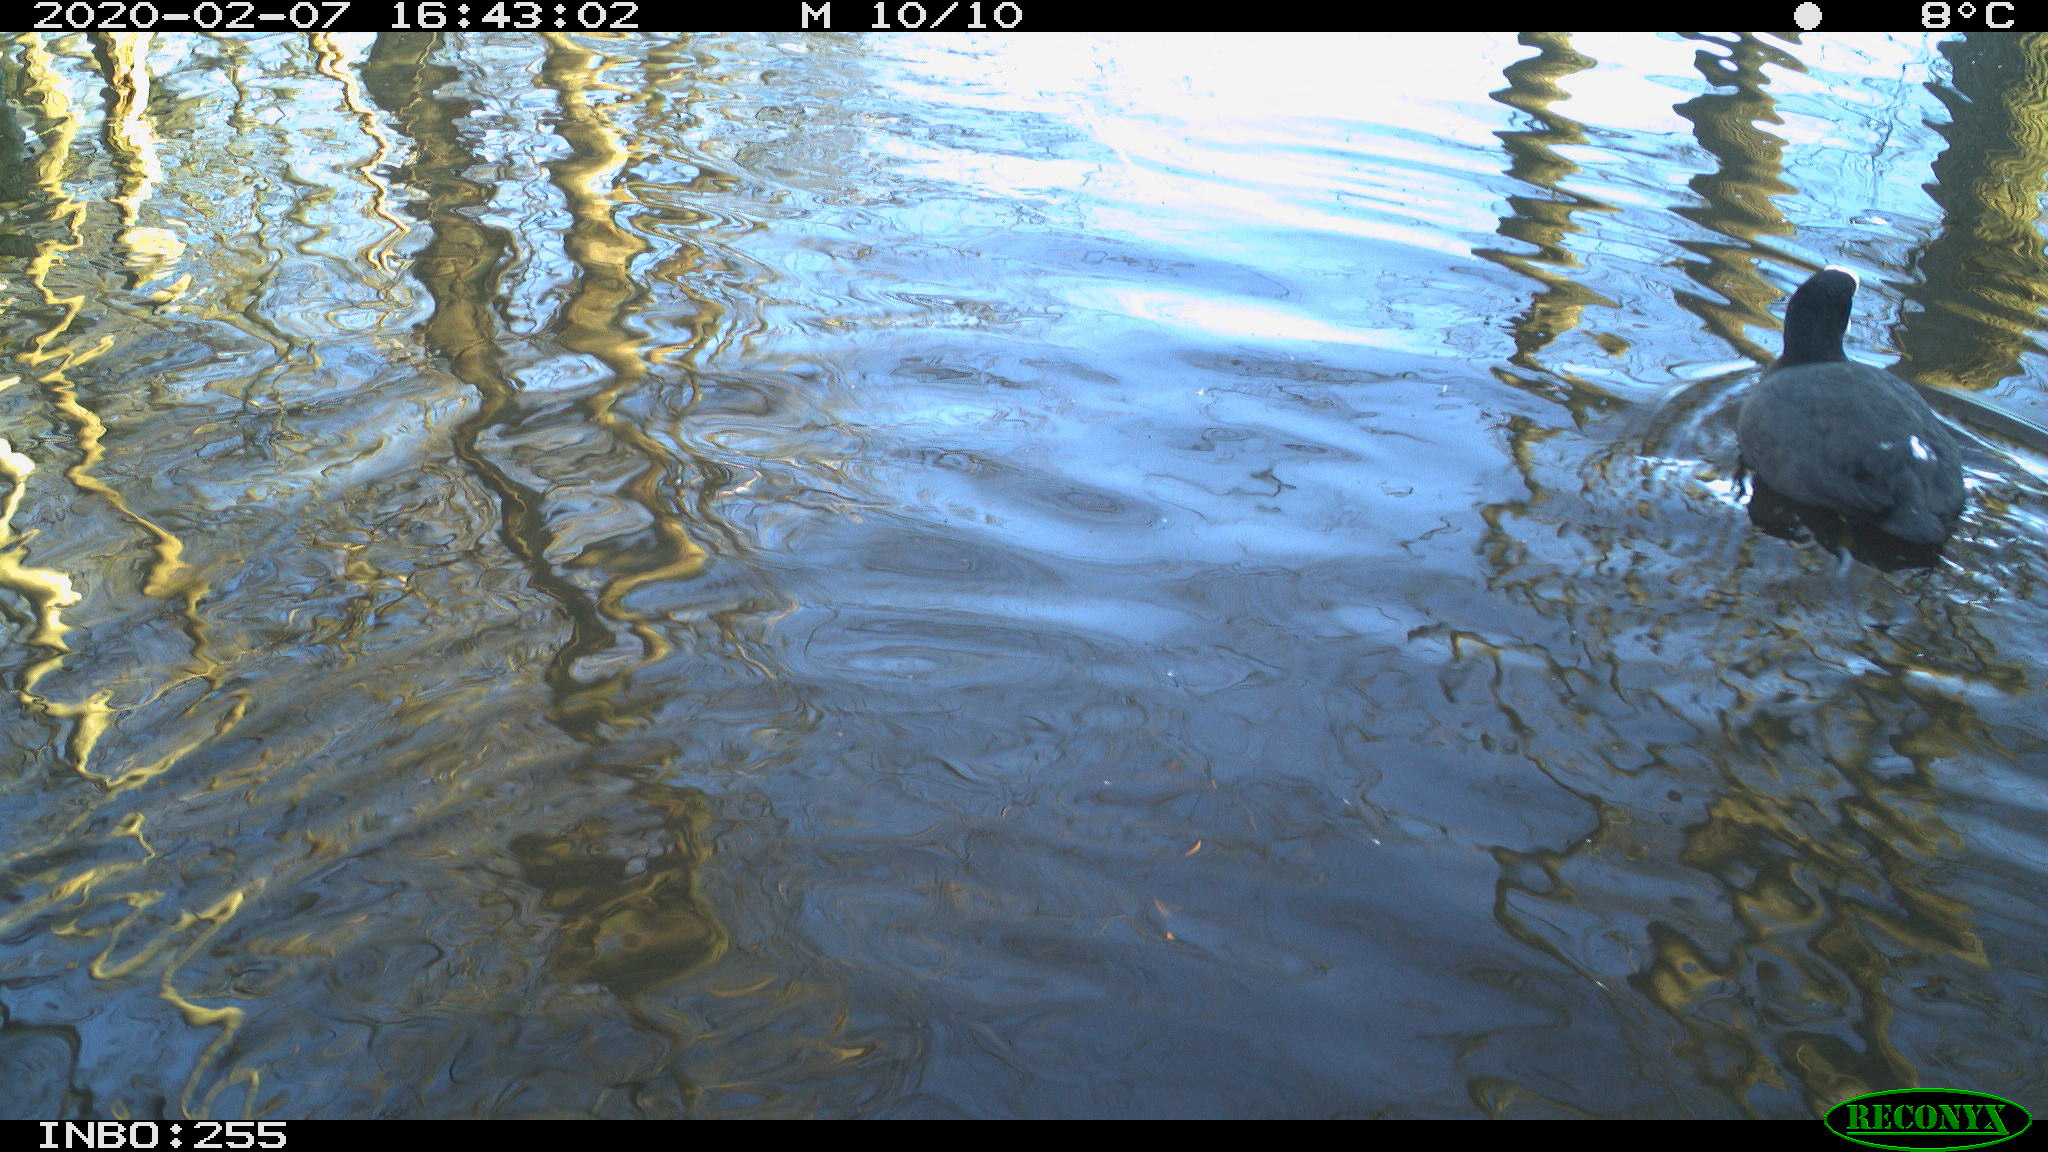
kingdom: Animalia
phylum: Chordata
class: Aves
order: Gruiformes
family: Rallidae
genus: Fulica
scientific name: Fulica atra
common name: Eurasian coot
